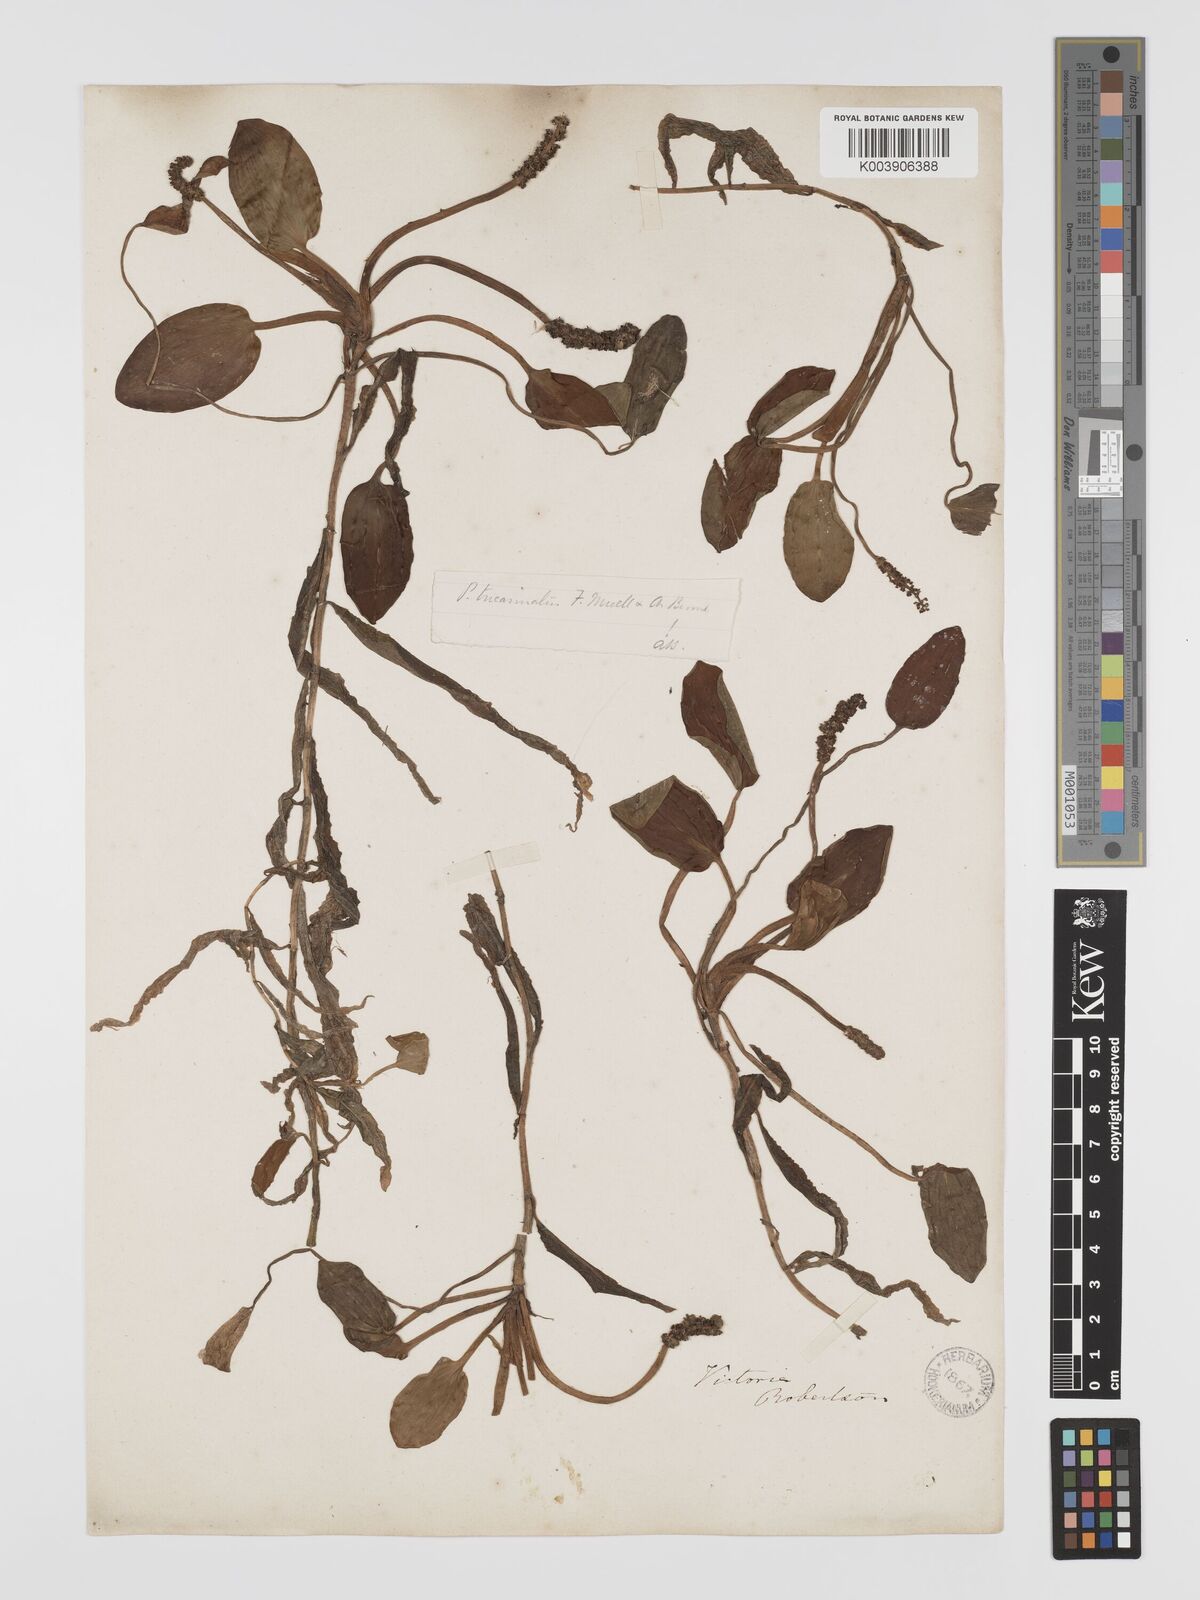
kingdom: Plantae
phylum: Tracheophyta
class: Liliopsida
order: Alismatales
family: Potamogetonaceae
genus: Potamogeton
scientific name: Potamogeton tricarinatus
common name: Pondweed
